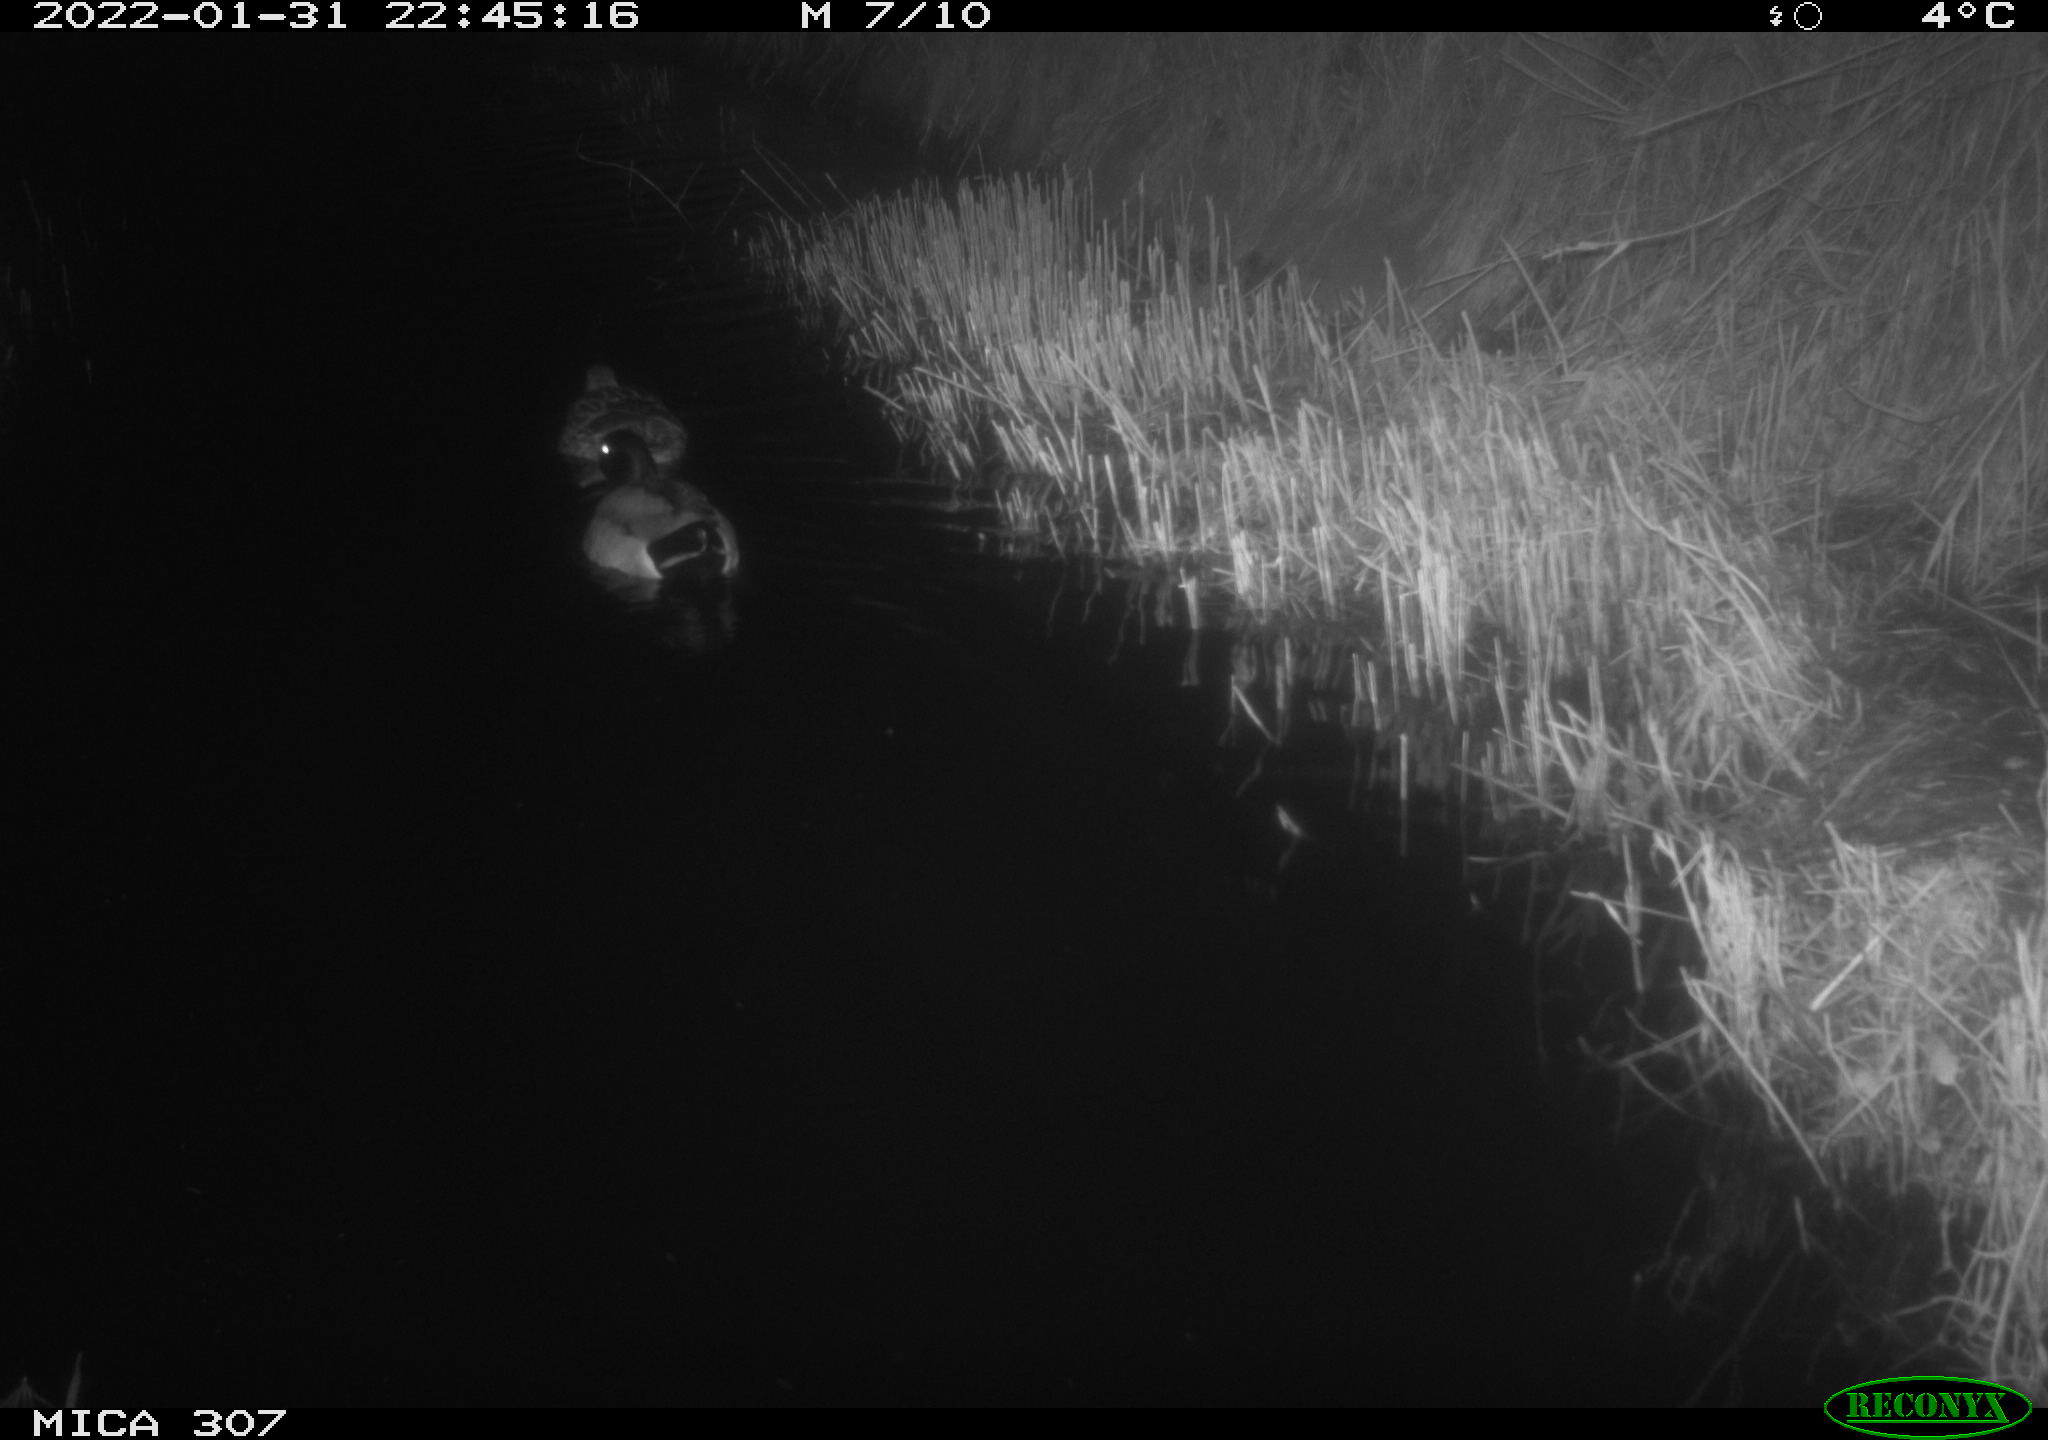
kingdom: Animalia
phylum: Chordata
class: Aves
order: Anseriformes
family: Anatidae
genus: Anas
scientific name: Anas
